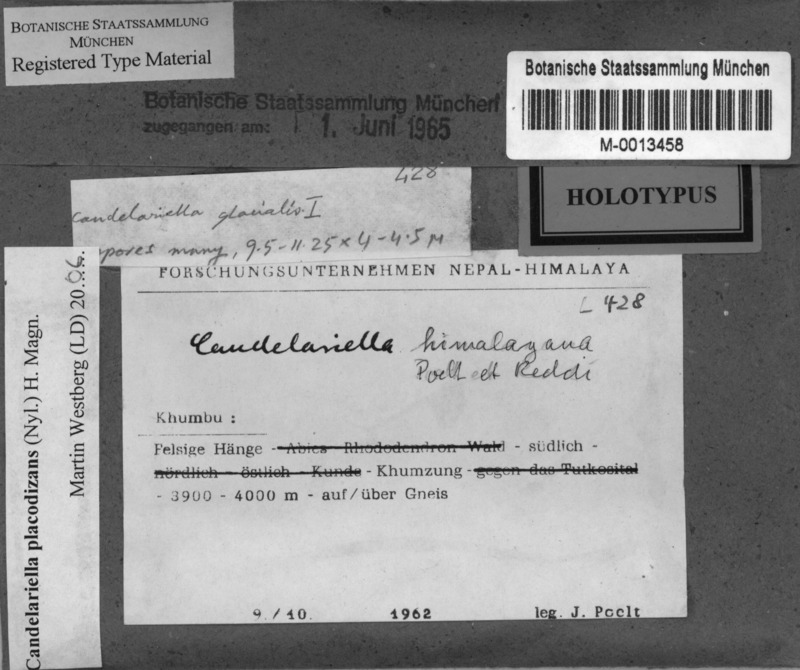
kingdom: Fungi
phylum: Ascomycota
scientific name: Ascomycota
